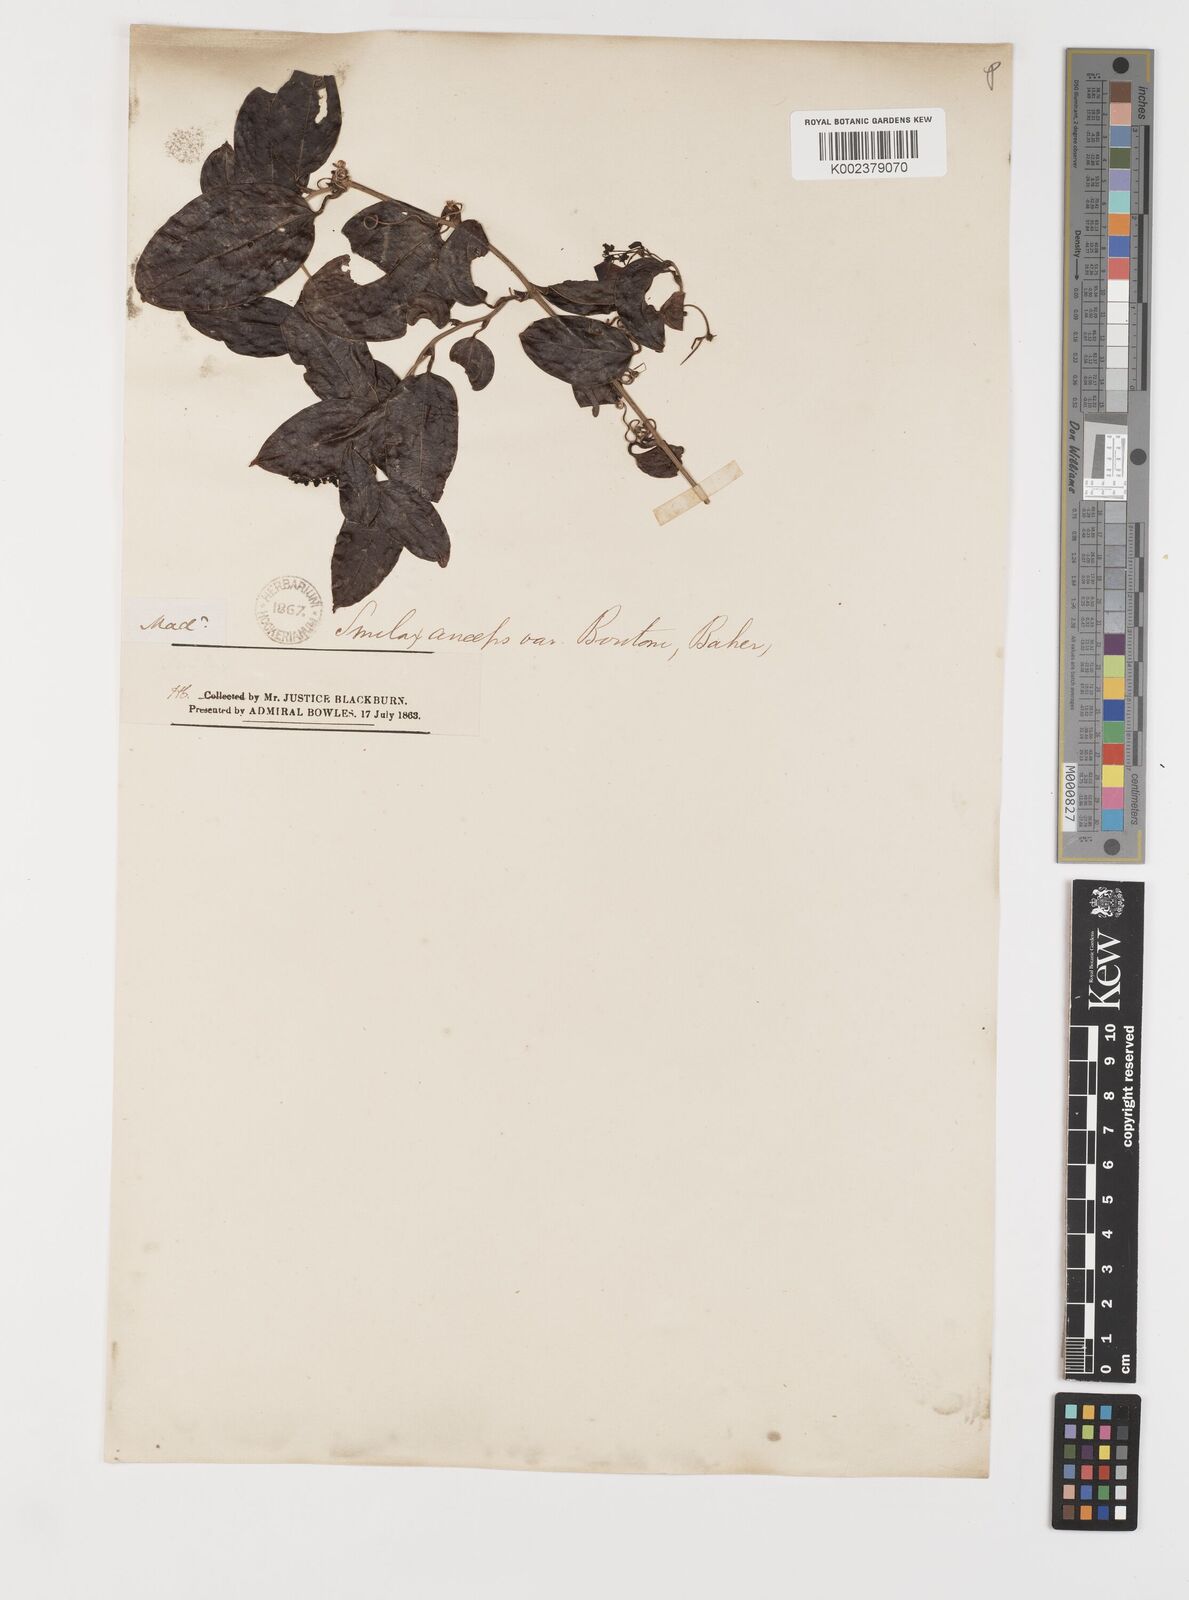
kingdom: Plantae
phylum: Tracheophyta
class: Liliopsida
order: Liliales
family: Smilacaceae
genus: Smilax
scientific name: Smilax anceps
